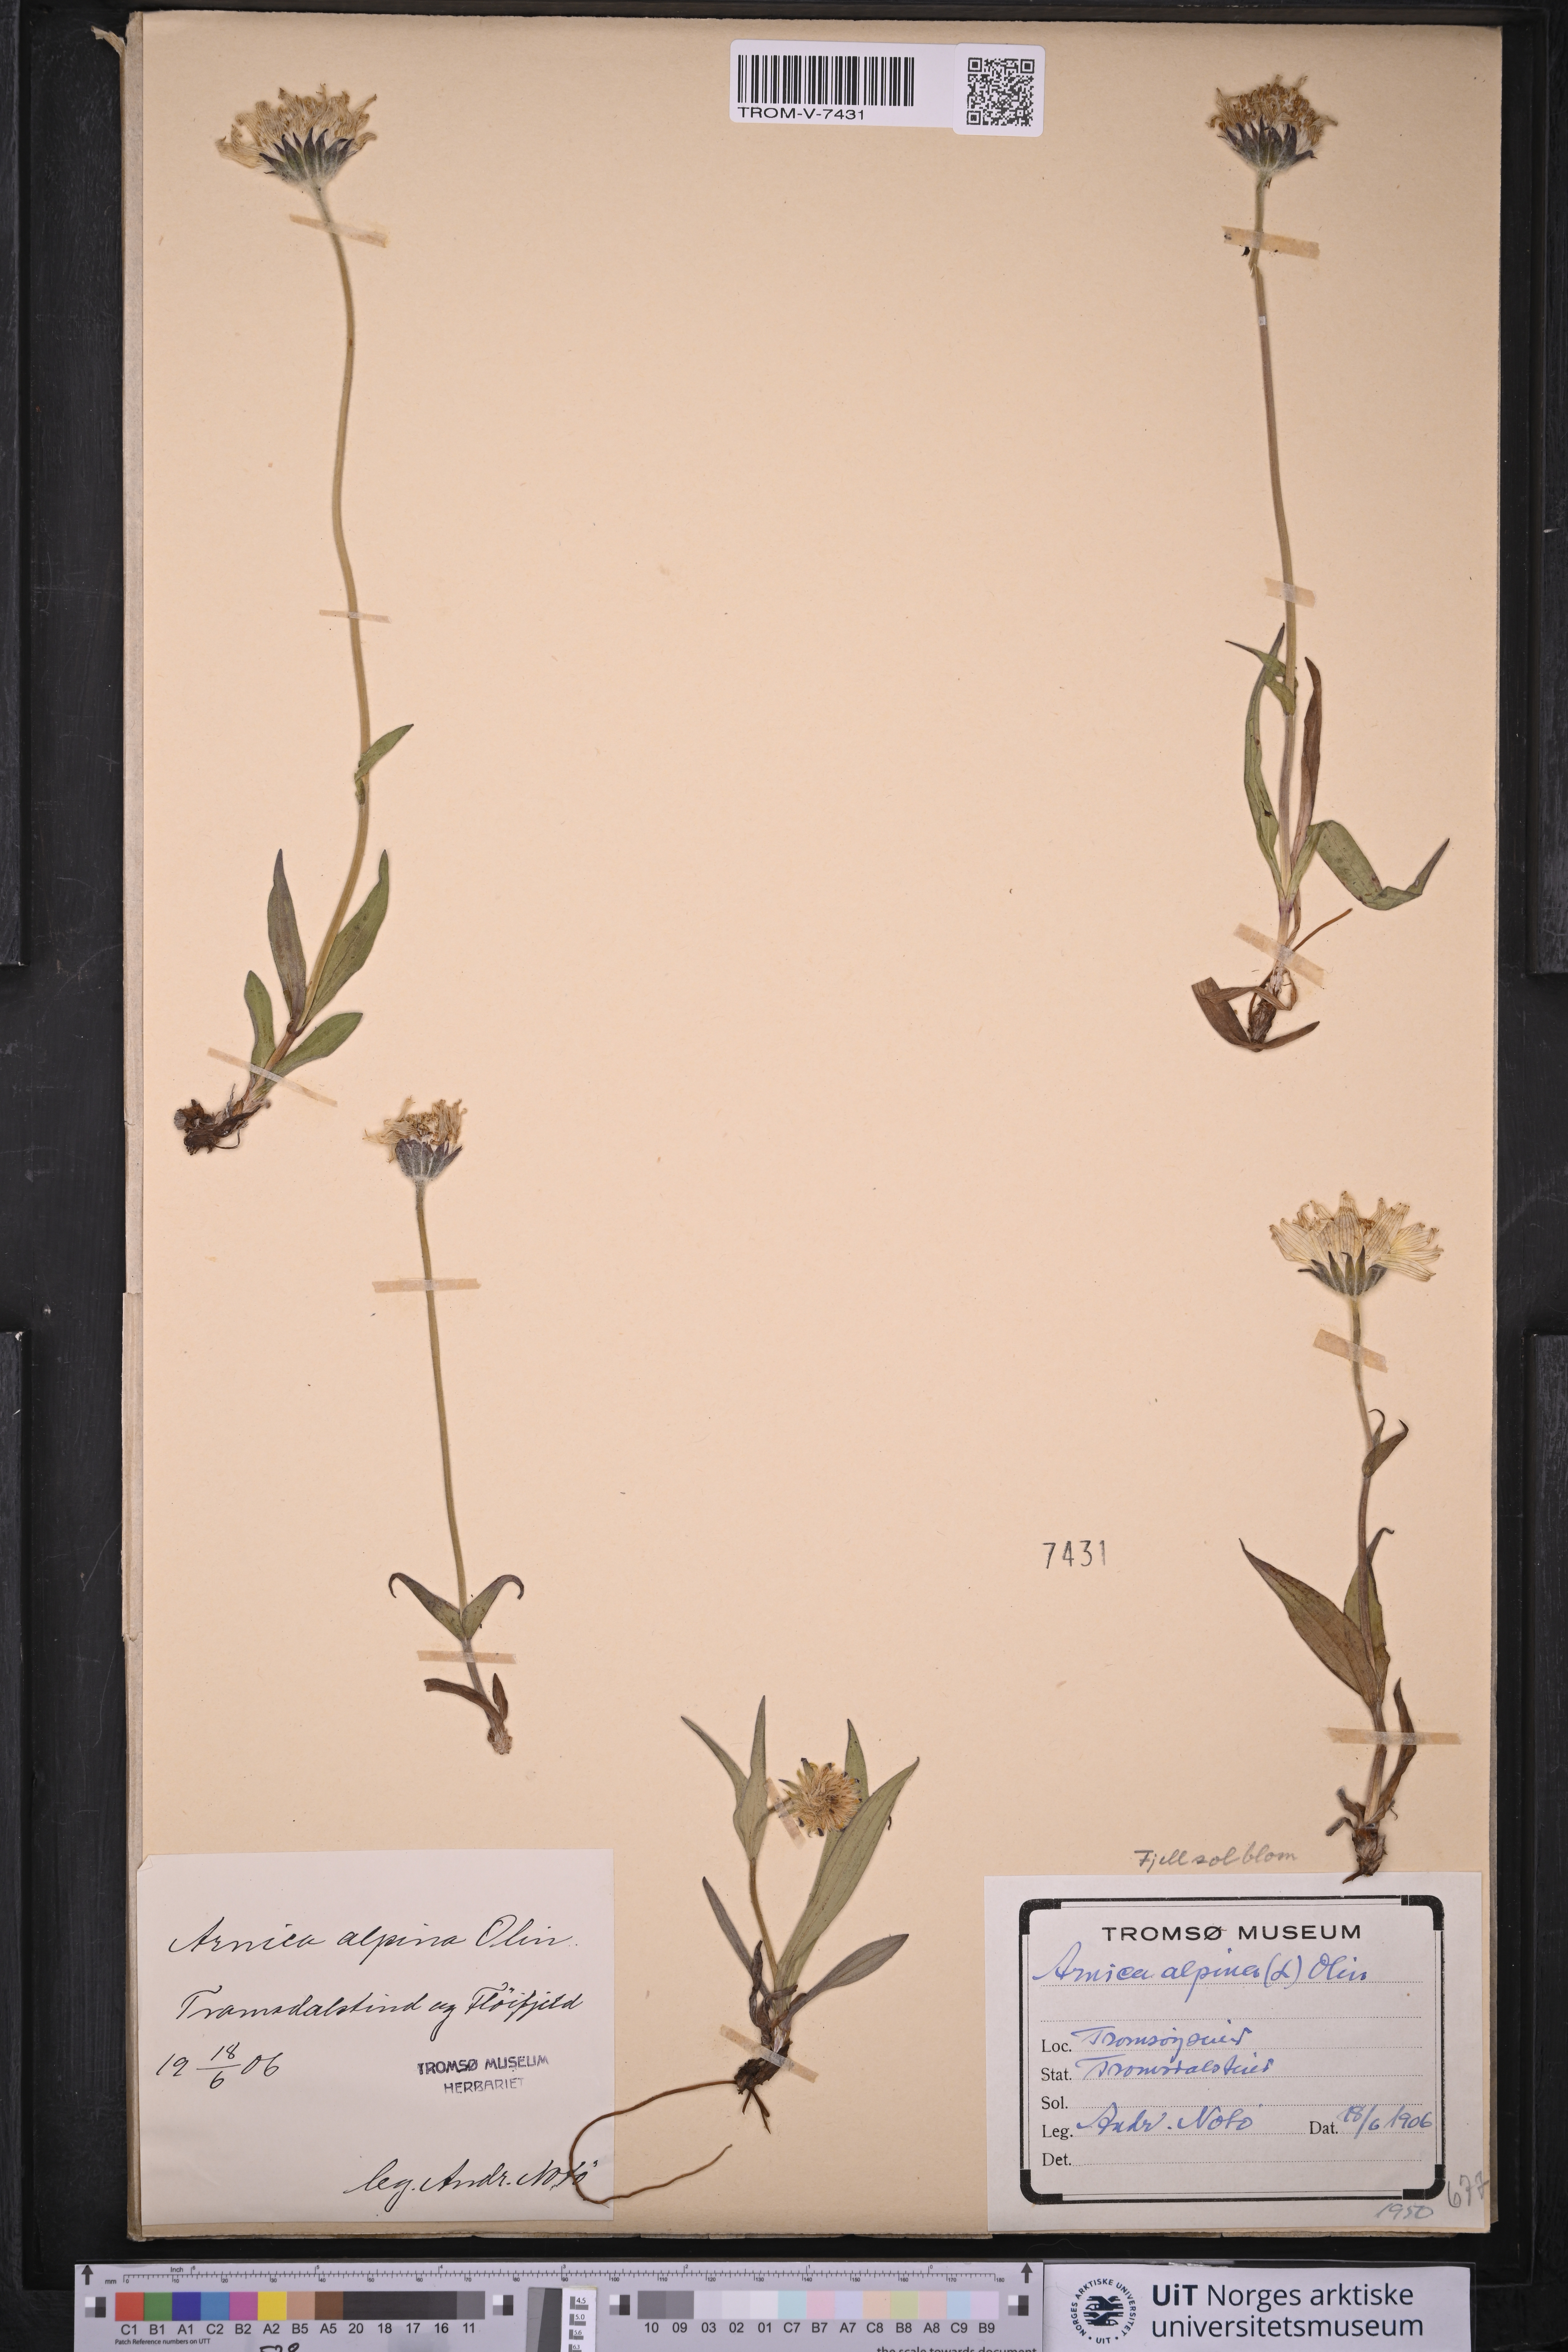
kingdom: Plantae
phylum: Tracheophyta
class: Magnoliopsida
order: Asterales
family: Asteraceae
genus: Arnica
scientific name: Arnica angustifolia
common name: Arctic arnica
